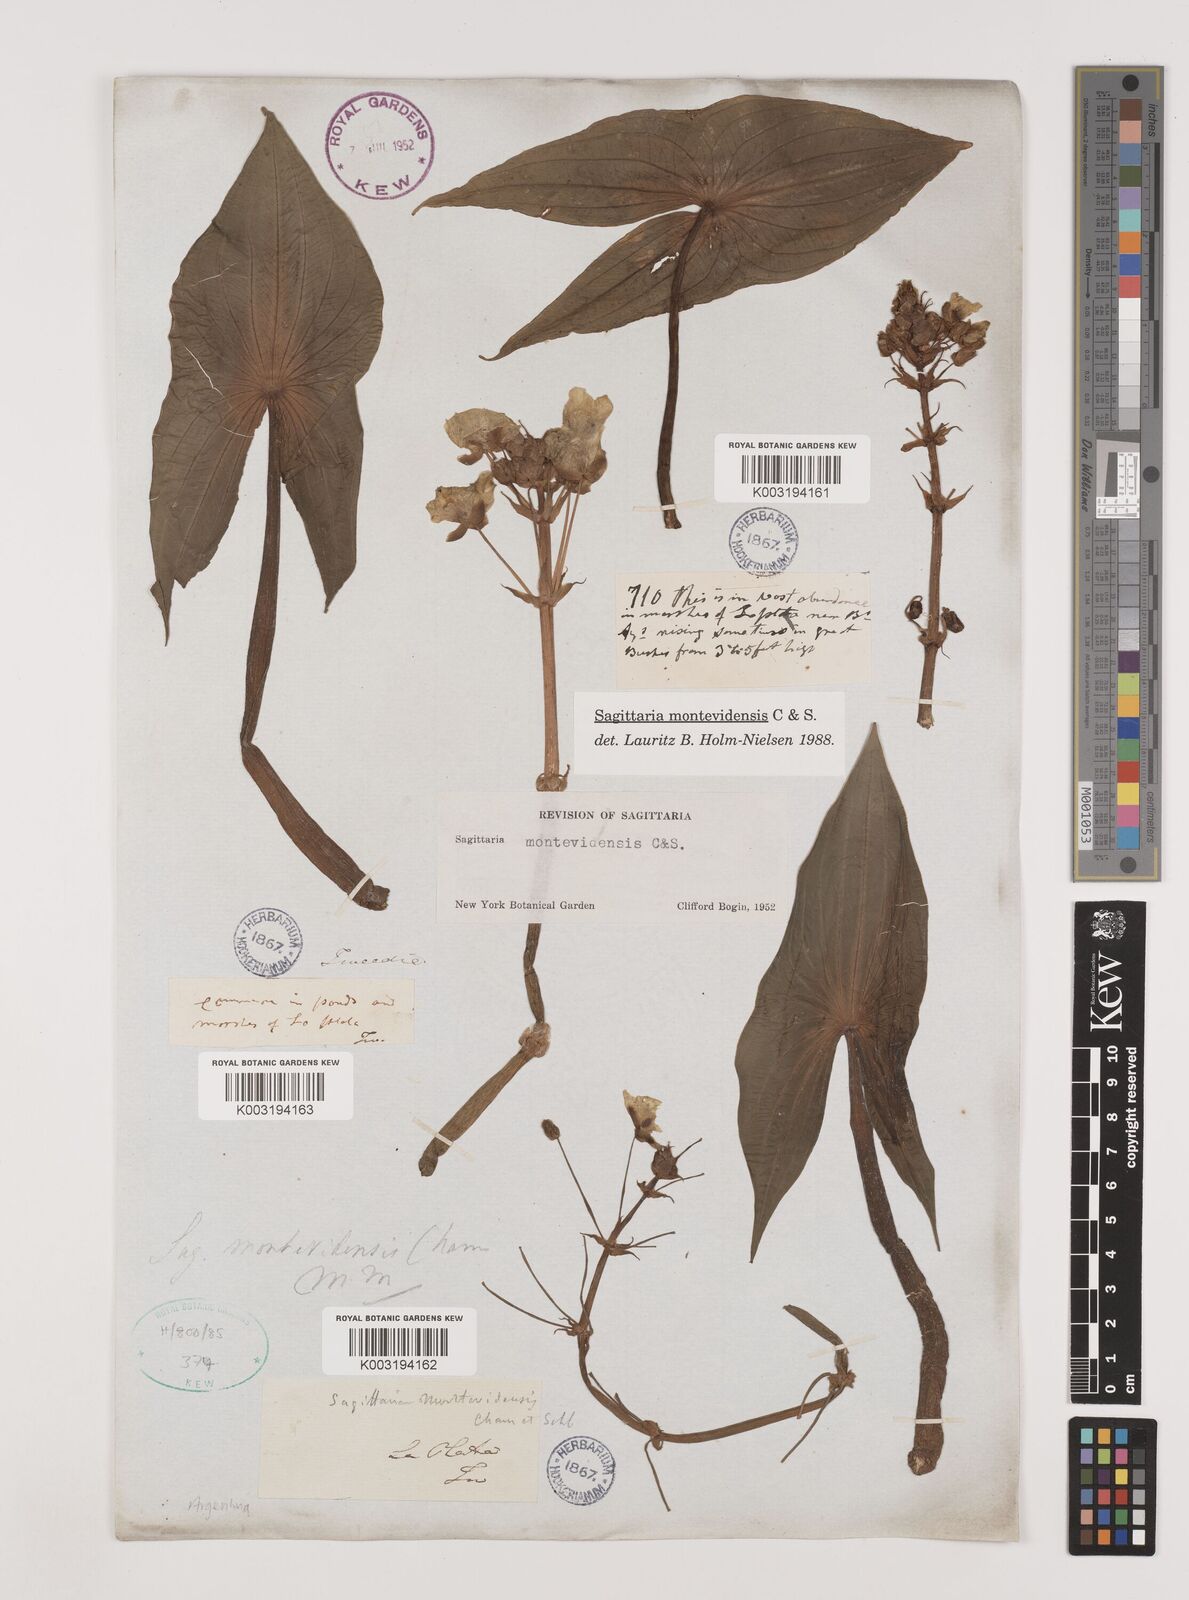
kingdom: Plantae
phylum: Tracheophyta
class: Liliopsida
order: Alismatales
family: Alismataceae
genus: Sagittaria
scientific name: Sagittaria montevidensis
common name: Giant arrowhead
